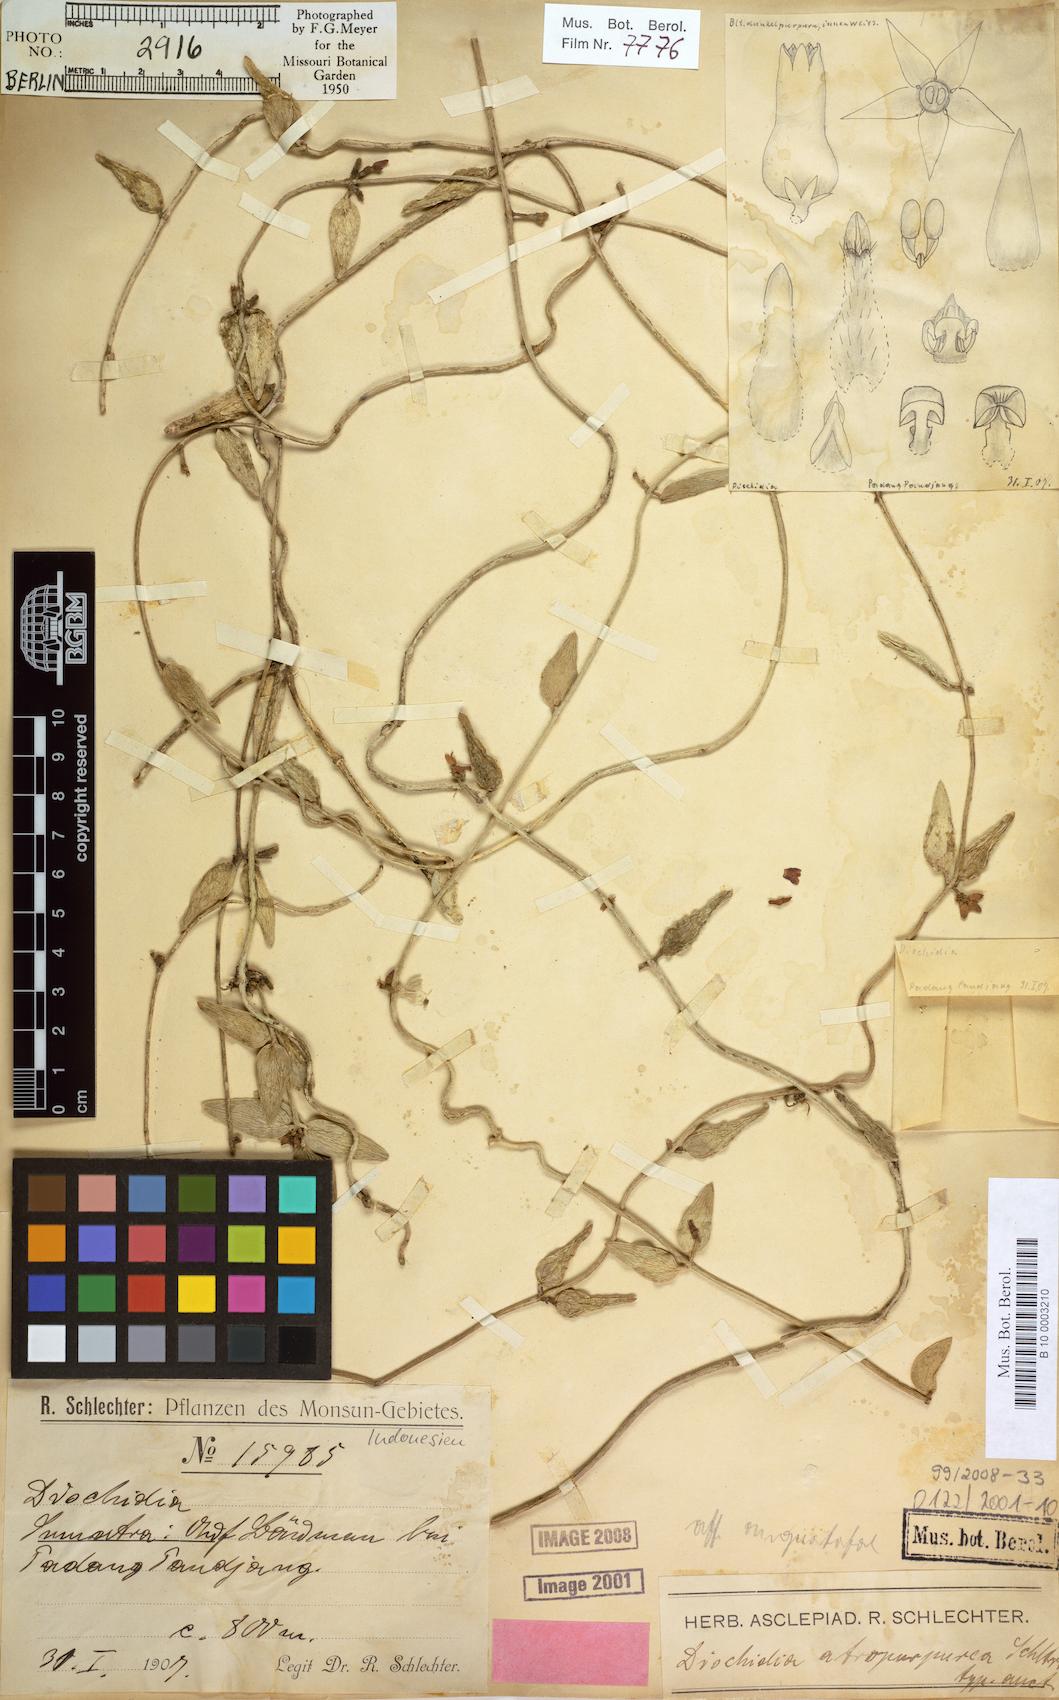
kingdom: Plantae
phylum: Tracheophyta
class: Magnoliopsida
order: Gentianales
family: Apocynaceae
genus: Dischidia
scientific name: Dischidia atropurpurea
